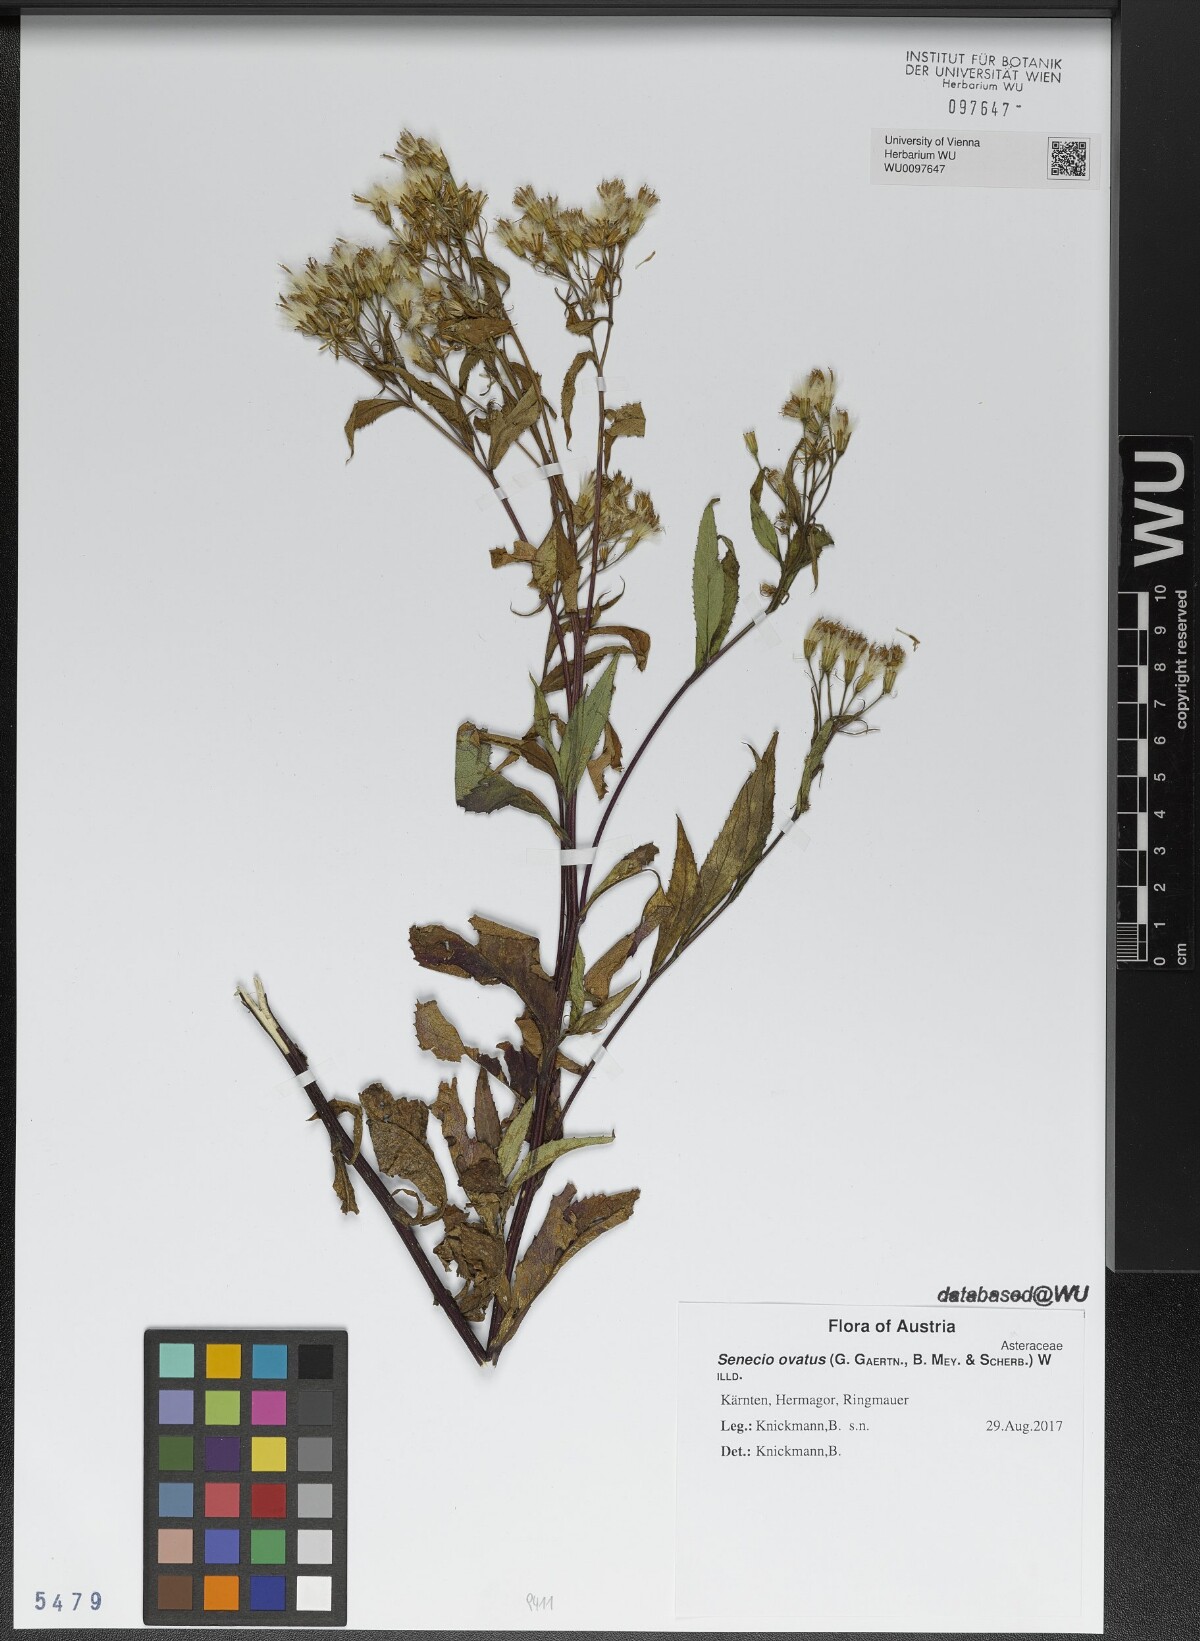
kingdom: Plantae
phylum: Tracheophyta
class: Magnoliopsida
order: Asterales
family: Asteraceae
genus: Senecio
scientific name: Senecio ovatus
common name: Wood ragwort
